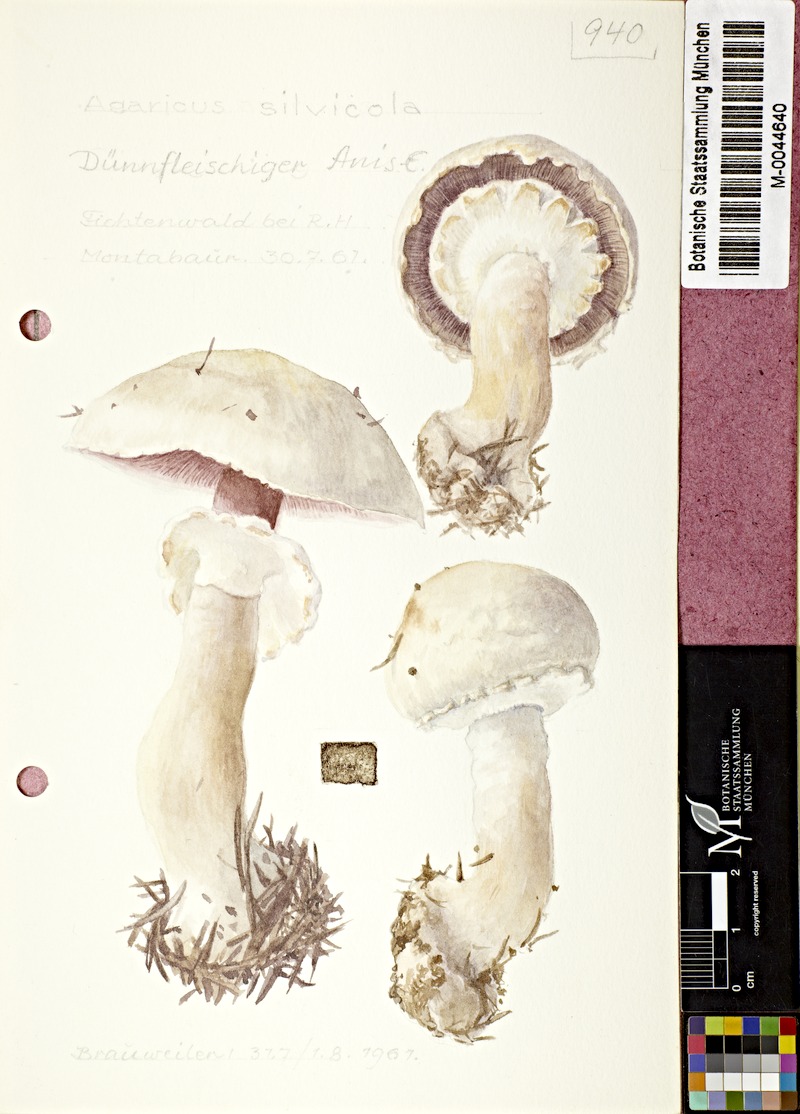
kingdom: Fungi
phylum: Basidiomycota
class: Agaricomycetes
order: Agaricales
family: Agaricaceae
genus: Agaricus
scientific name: Agaricus sylvicola
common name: Wood mushroom
